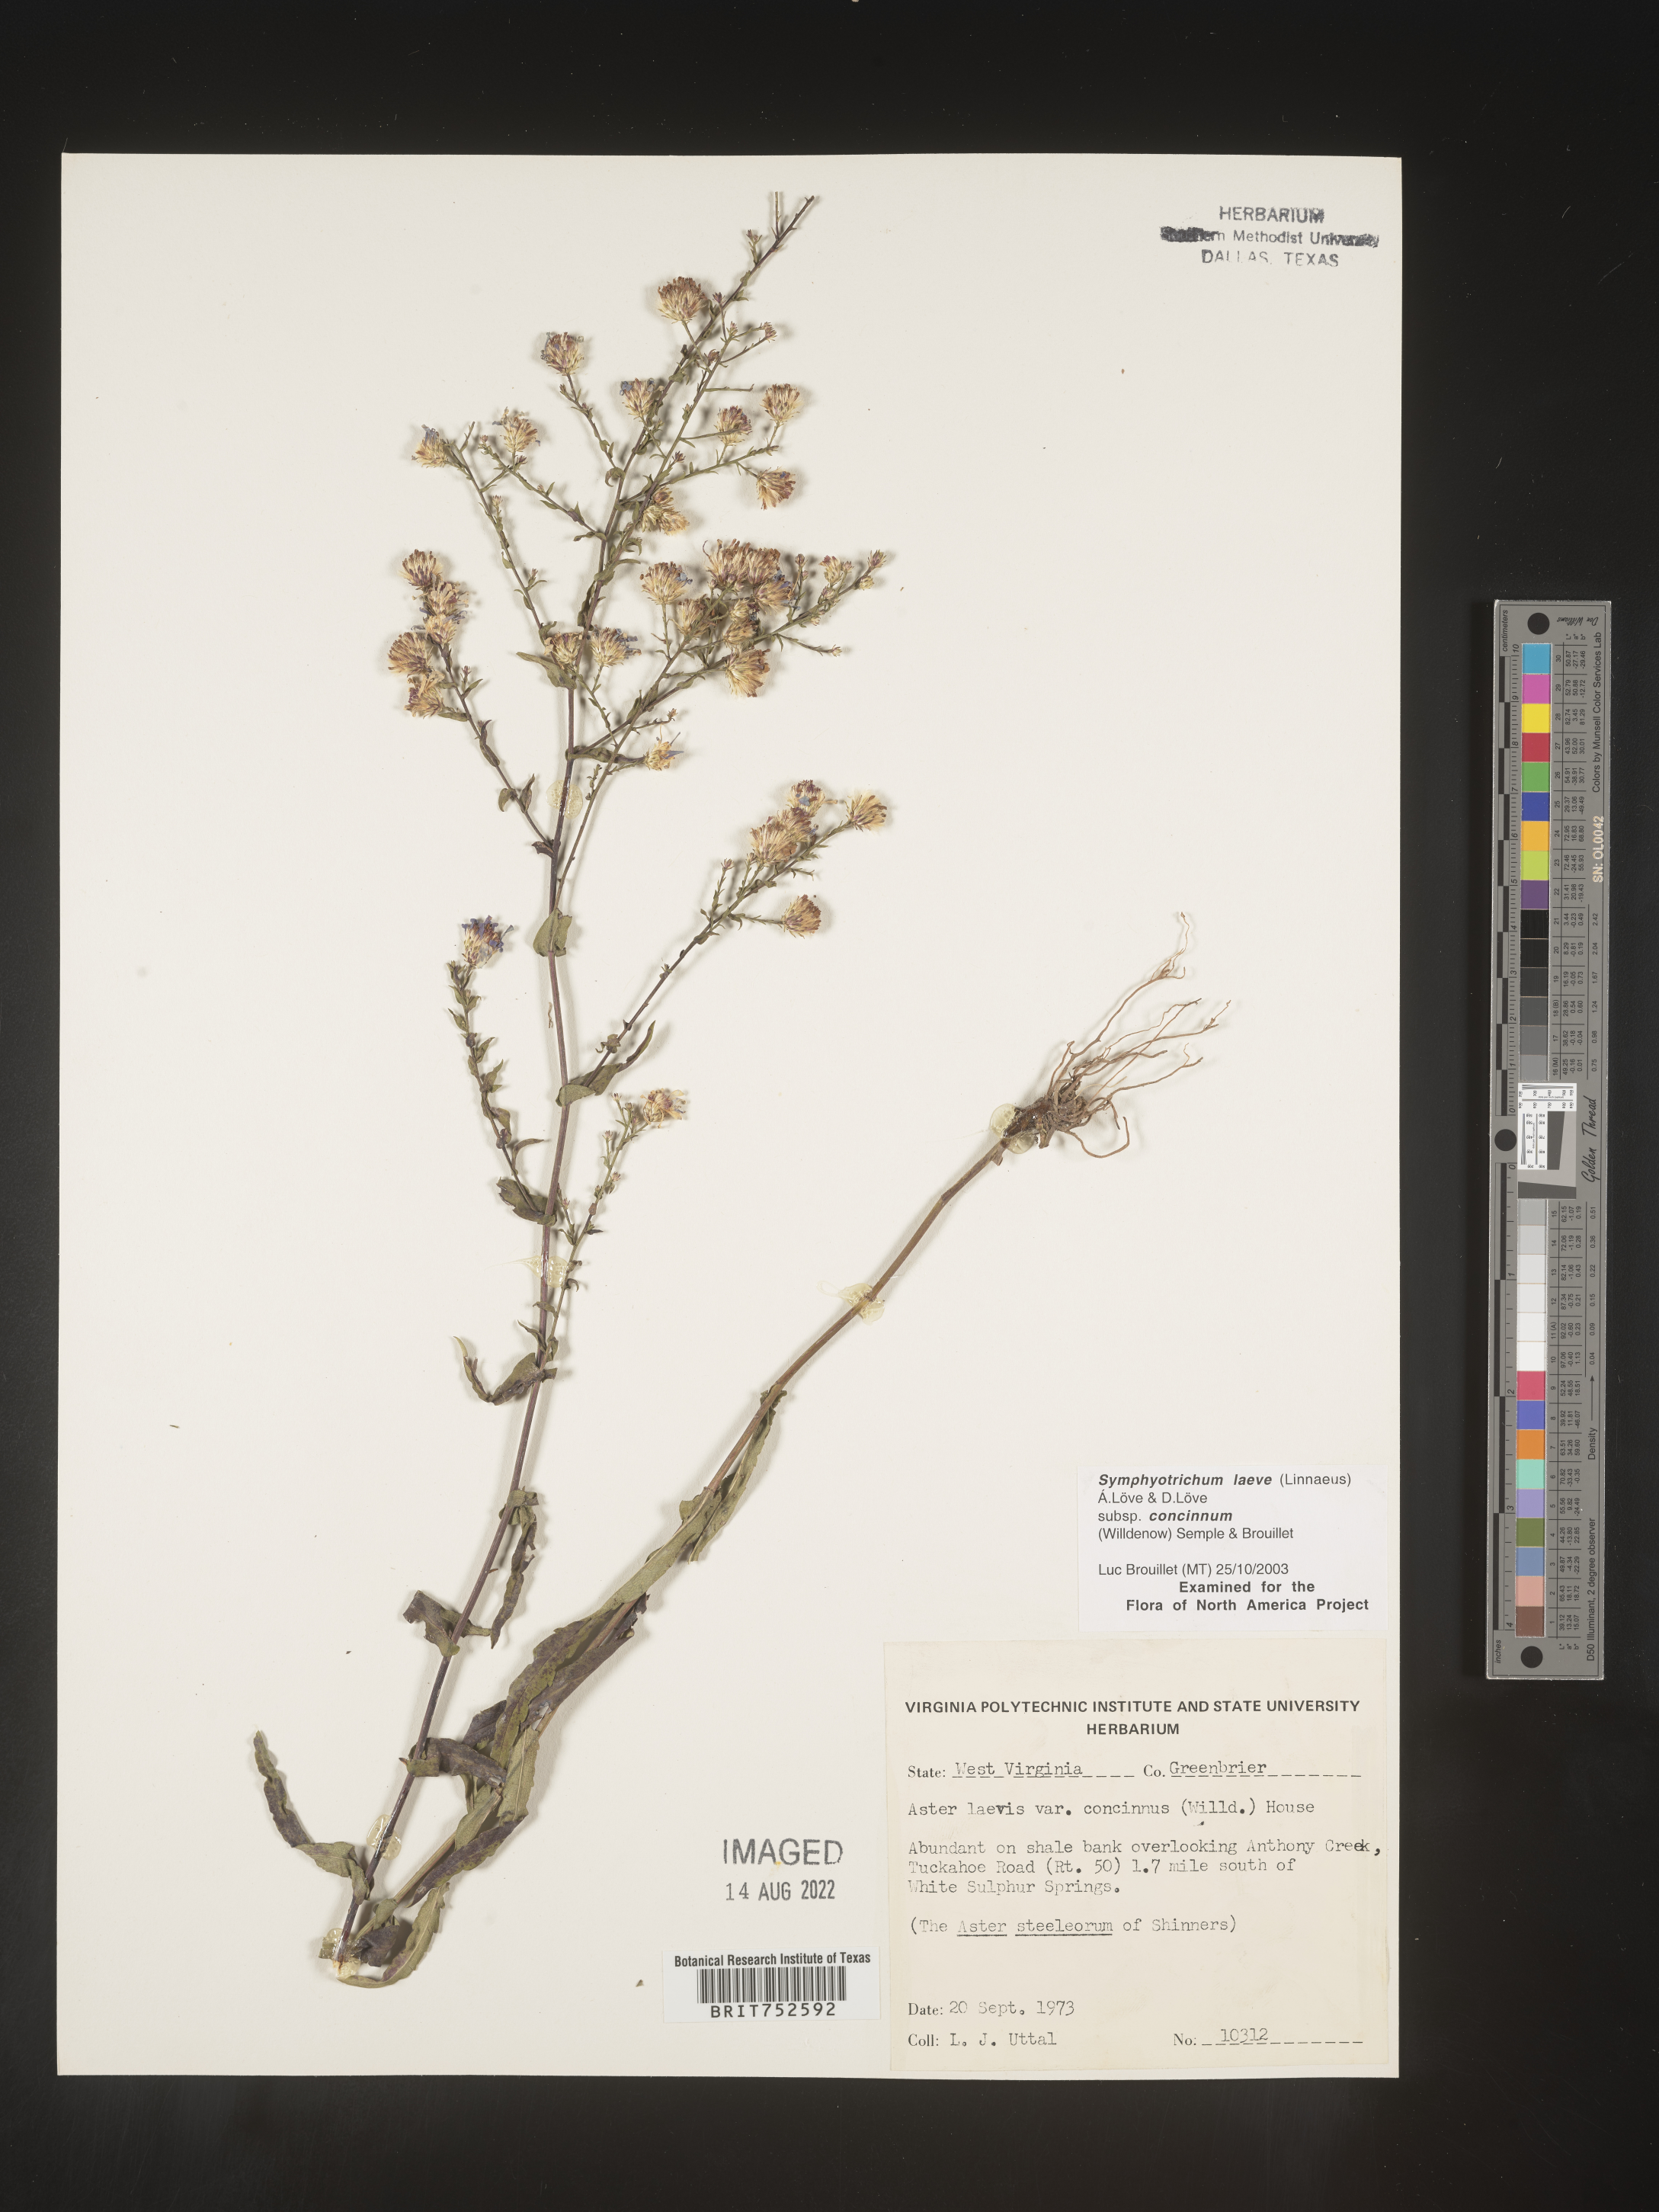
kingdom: Plantae
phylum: Tracheophyta
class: Magnoliopsida
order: Asterales
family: Asteraceae
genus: Symphyotrichum
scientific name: Symphyotrichum laeve
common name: Glaucous aster
